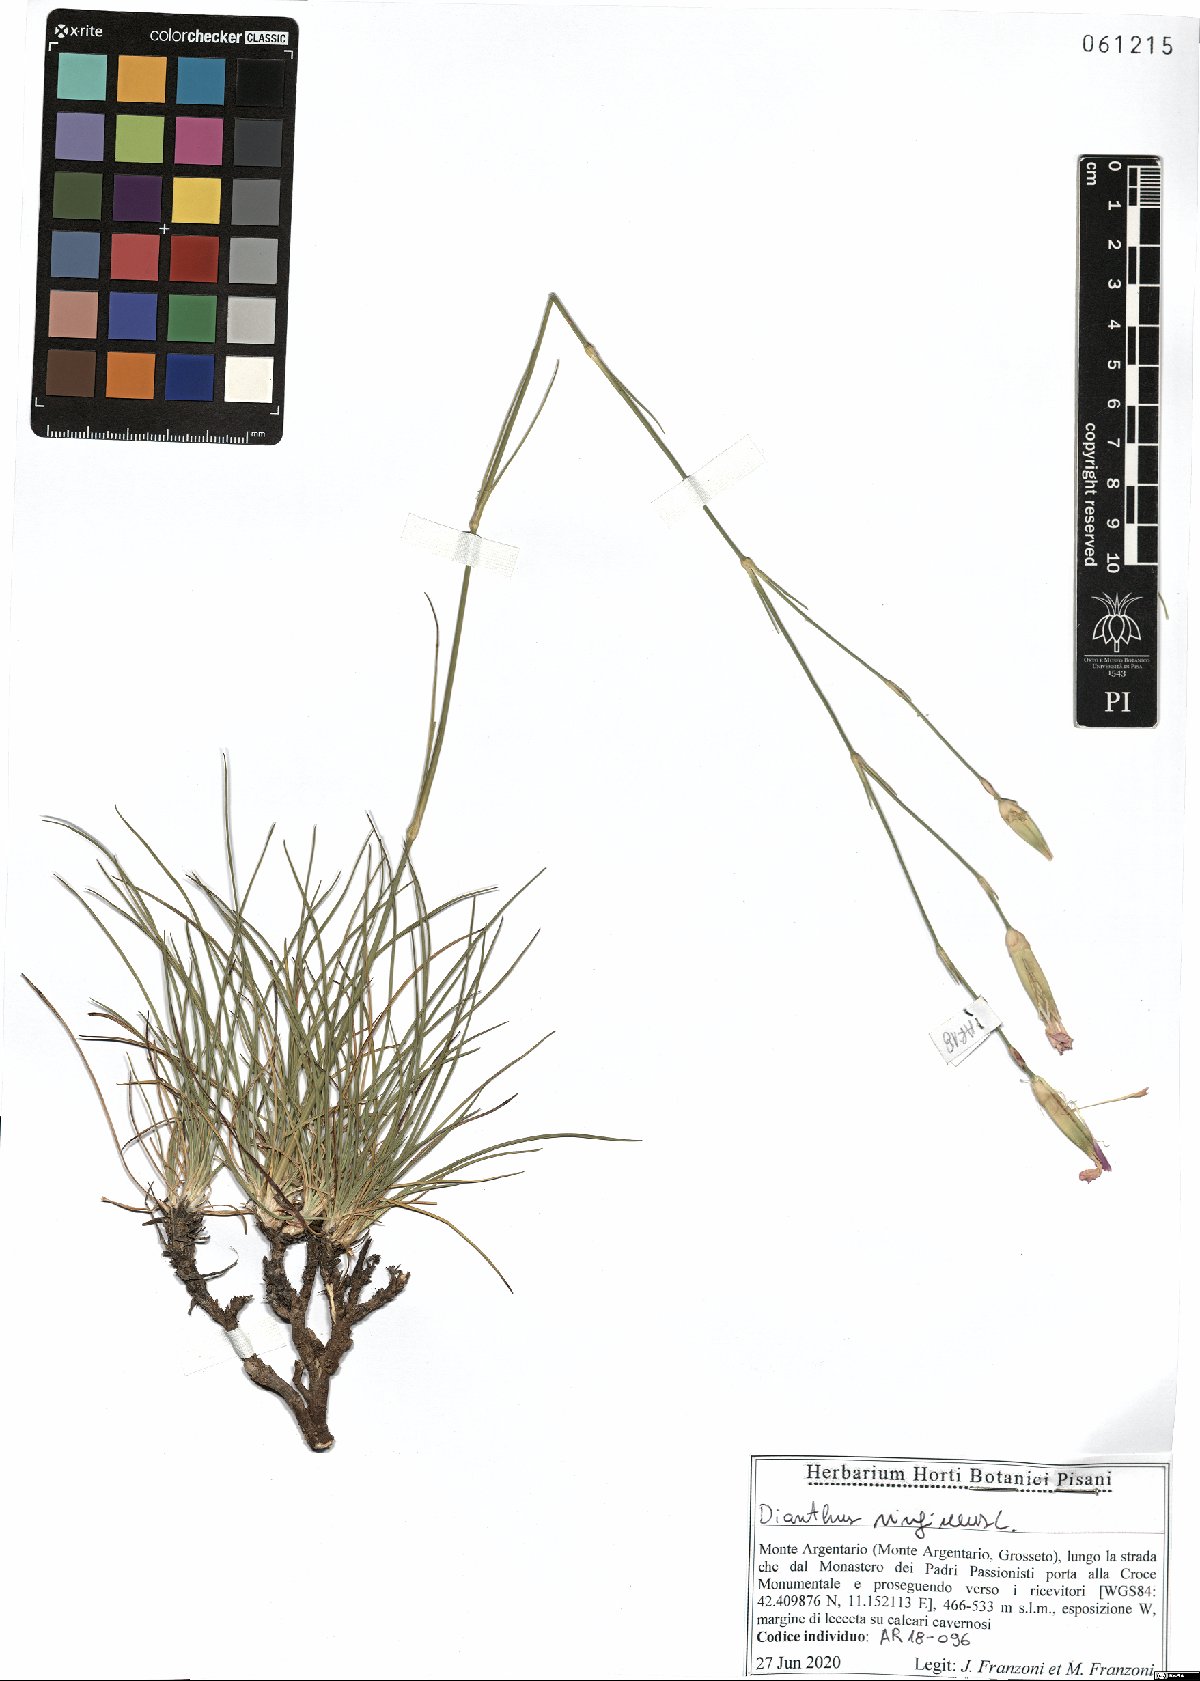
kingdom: Plantae
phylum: Tracheophyta
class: Magnoliopsida
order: Caryophyllales
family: Caryophyllaceae
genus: Dianthus
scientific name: Dianthus virgineus
